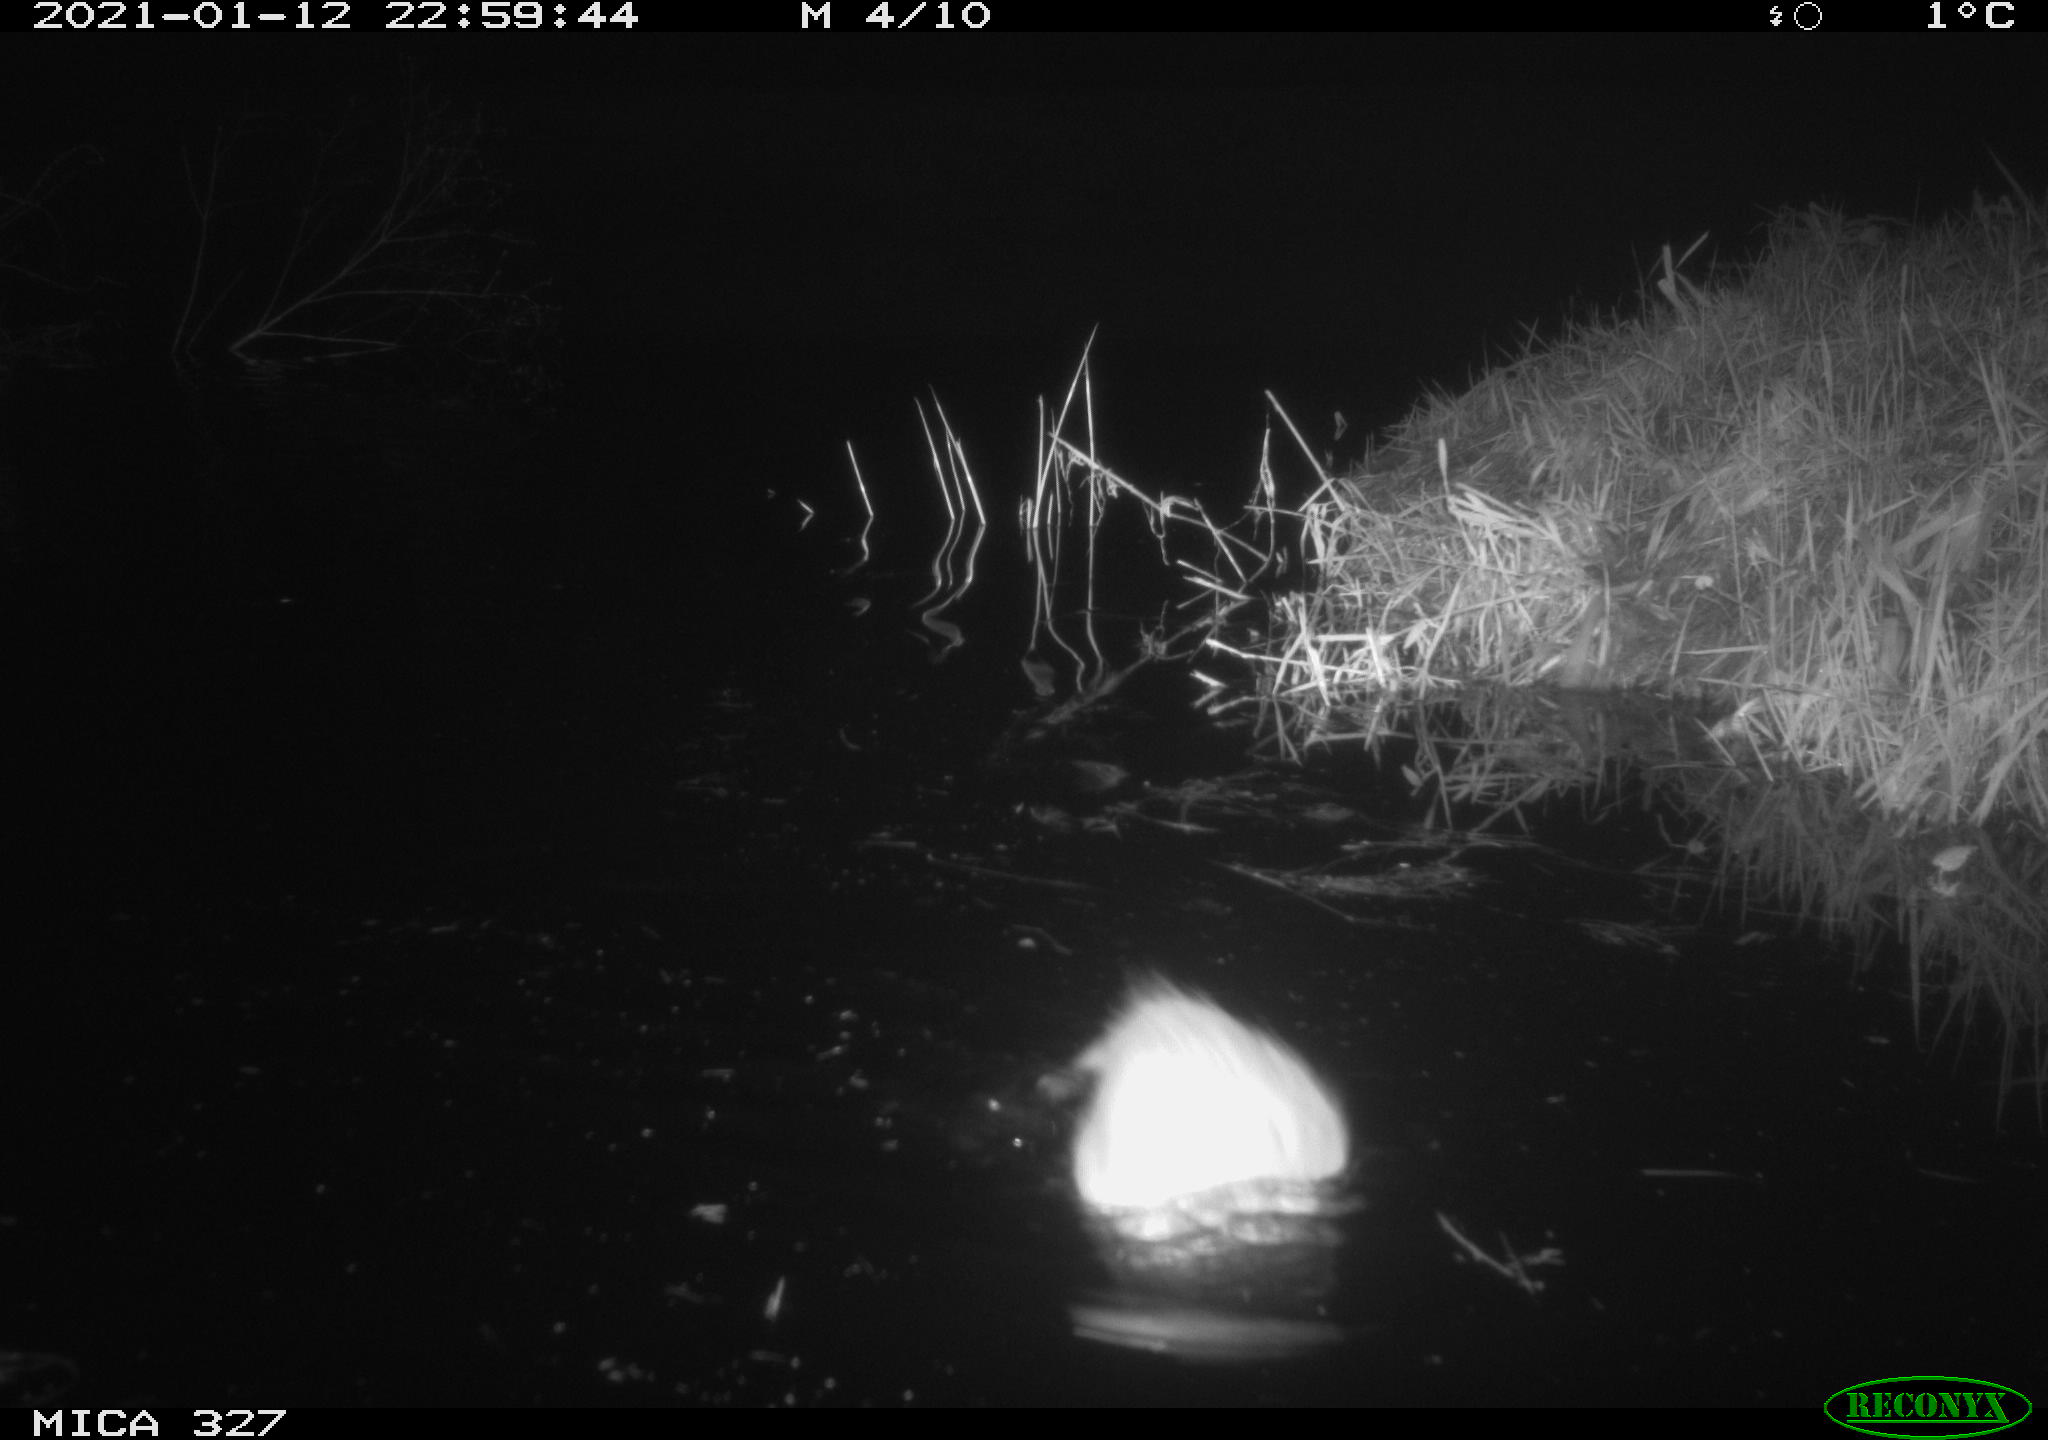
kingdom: Animalia
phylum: Chordata
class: Mammalia
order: Rodentia
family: Cricetidae
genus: Ondatra
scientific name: Ondatra zibethicus
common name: Muskrat
